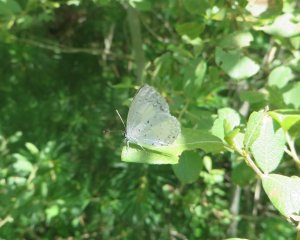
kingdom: Animalia
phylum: Arthropoda
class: Insecta
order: Lepidoptera
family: Lycaenidae
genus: Cyaniris
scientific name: Cyaniris neglecta
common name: Summer Azure
